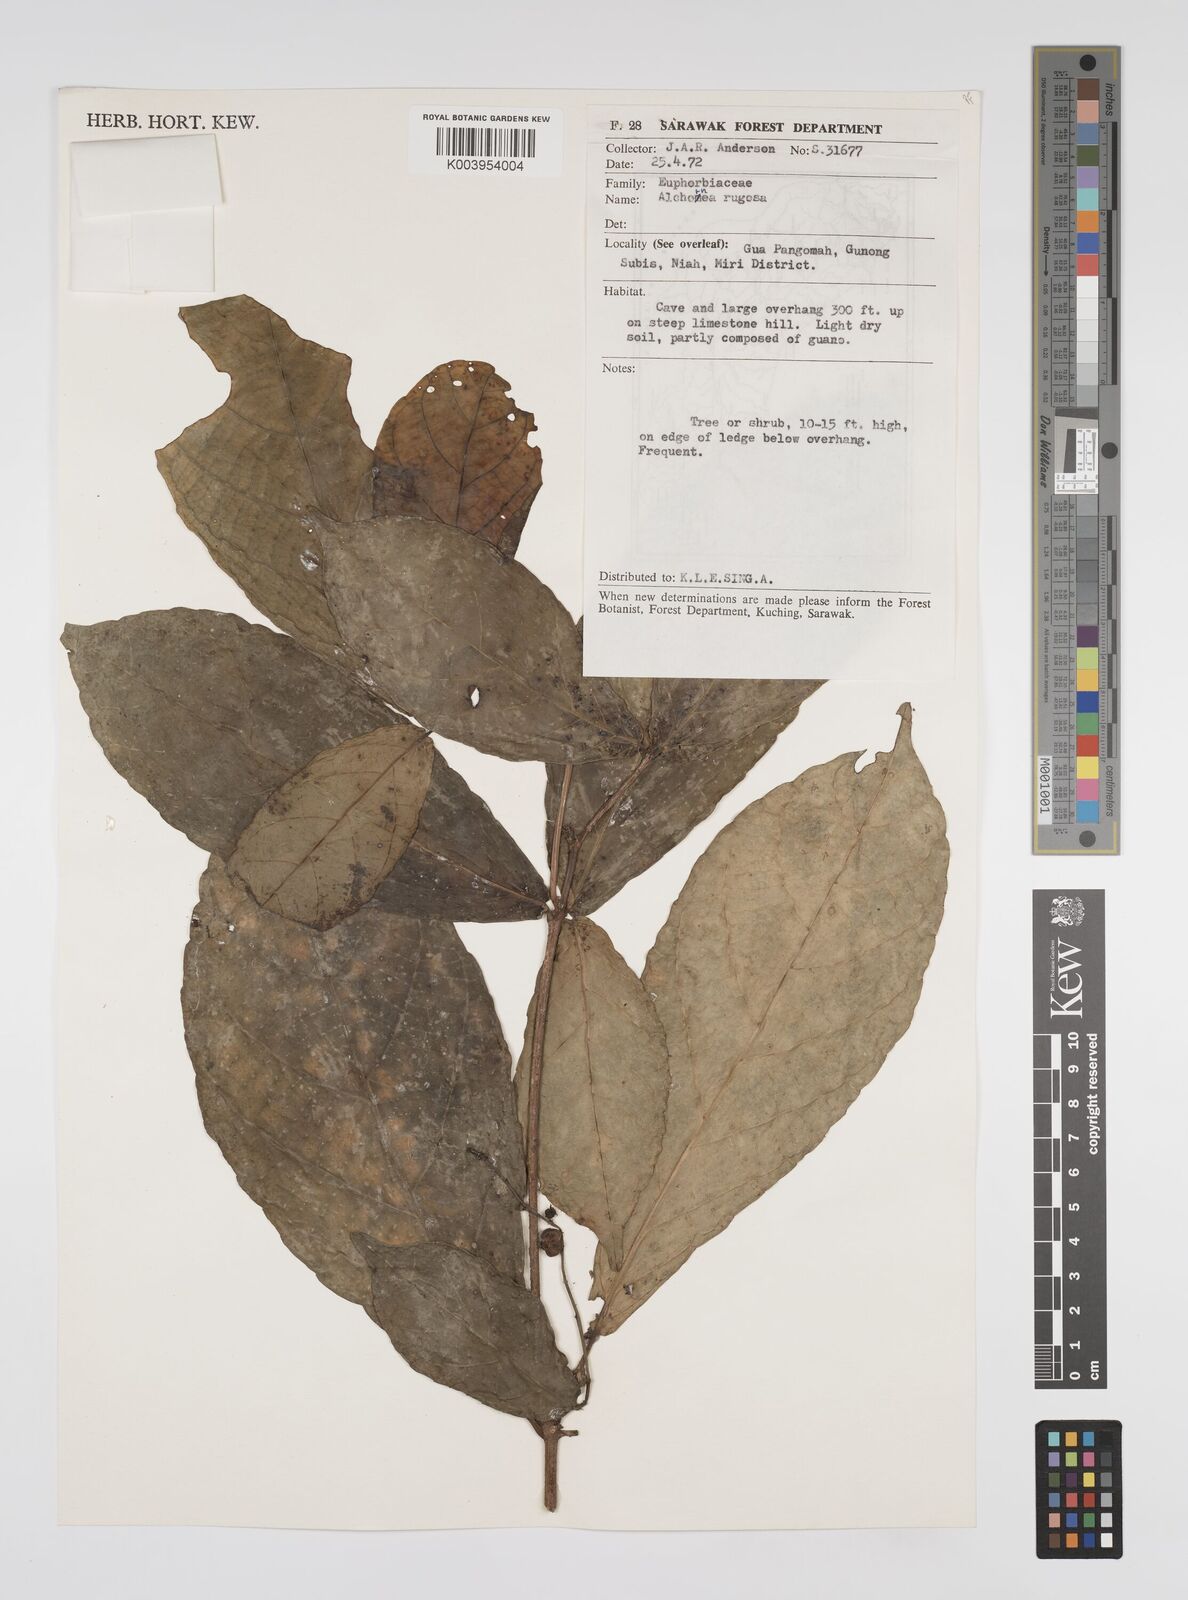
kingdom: Plantae
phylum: Tracheophyta
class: Magnoliopsida
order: Malpighiales
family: Euphorbiaceae
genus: Alchornea
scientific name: Alchornea rugosa
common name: Alchorntree
